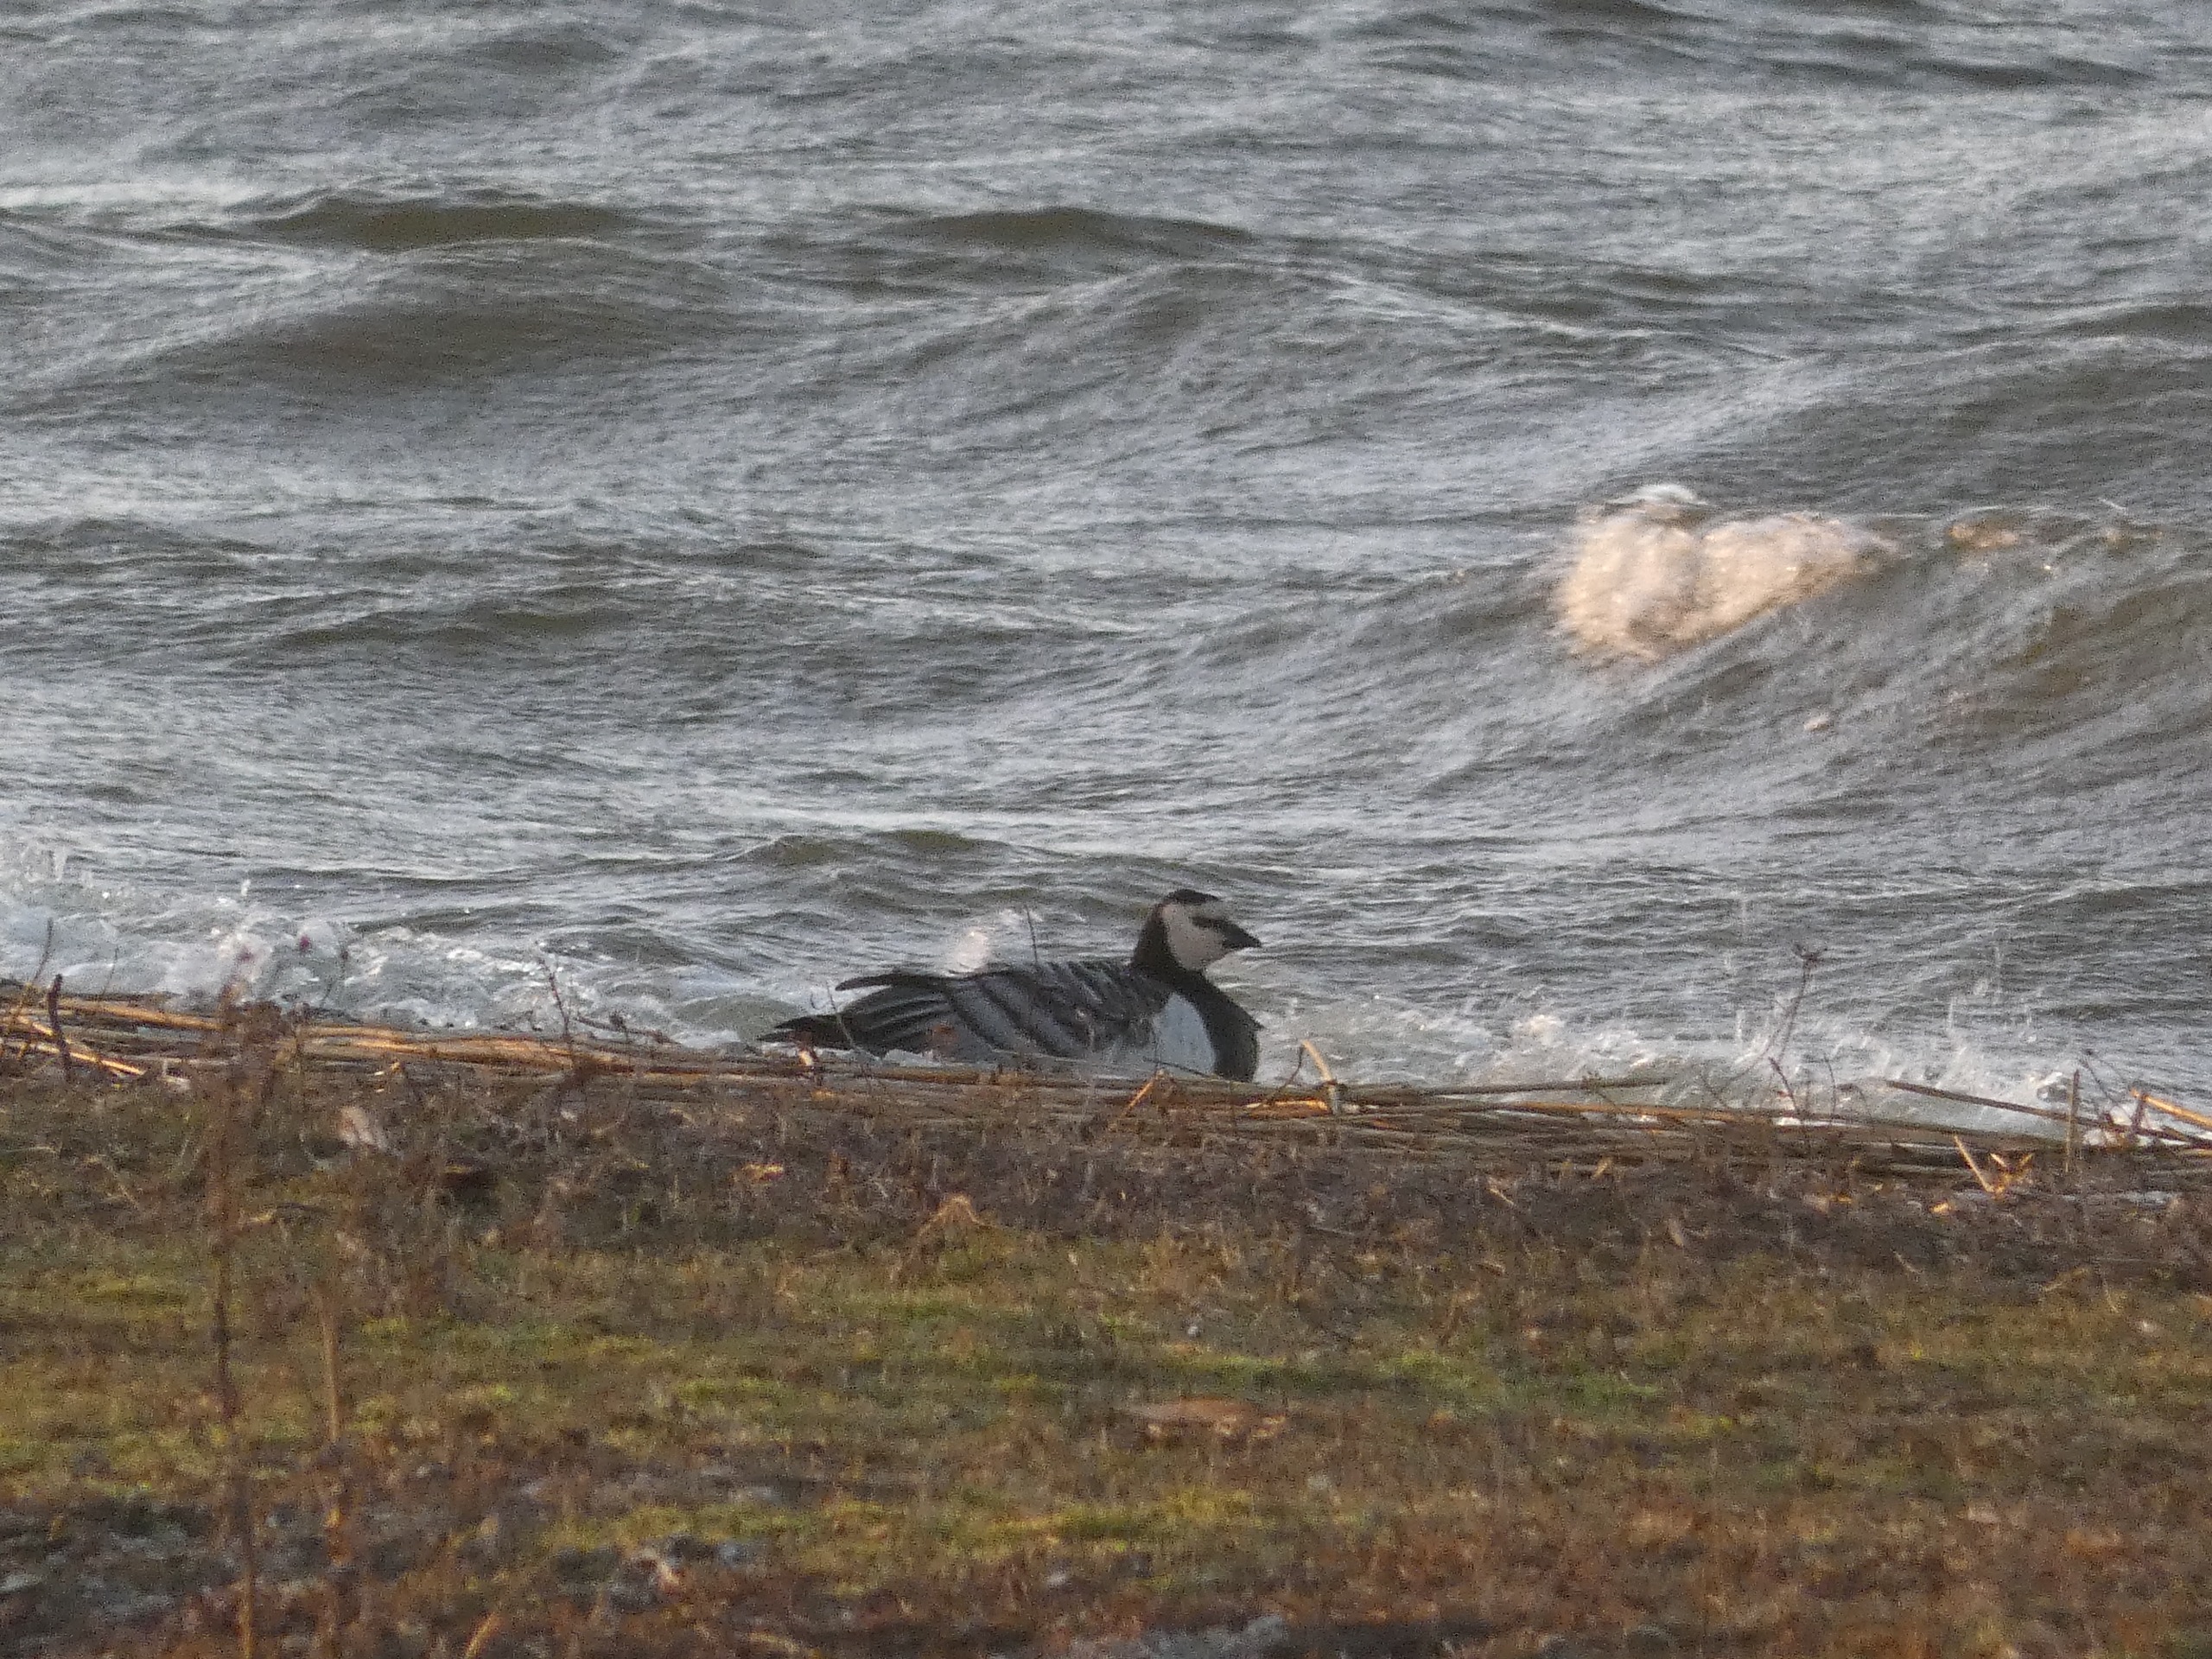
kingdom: Animalia
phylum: Chordata
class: Aves
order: Anseriformes
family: Anatidae
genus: Branta
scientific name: Branta leucopsis
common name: Bramgås
